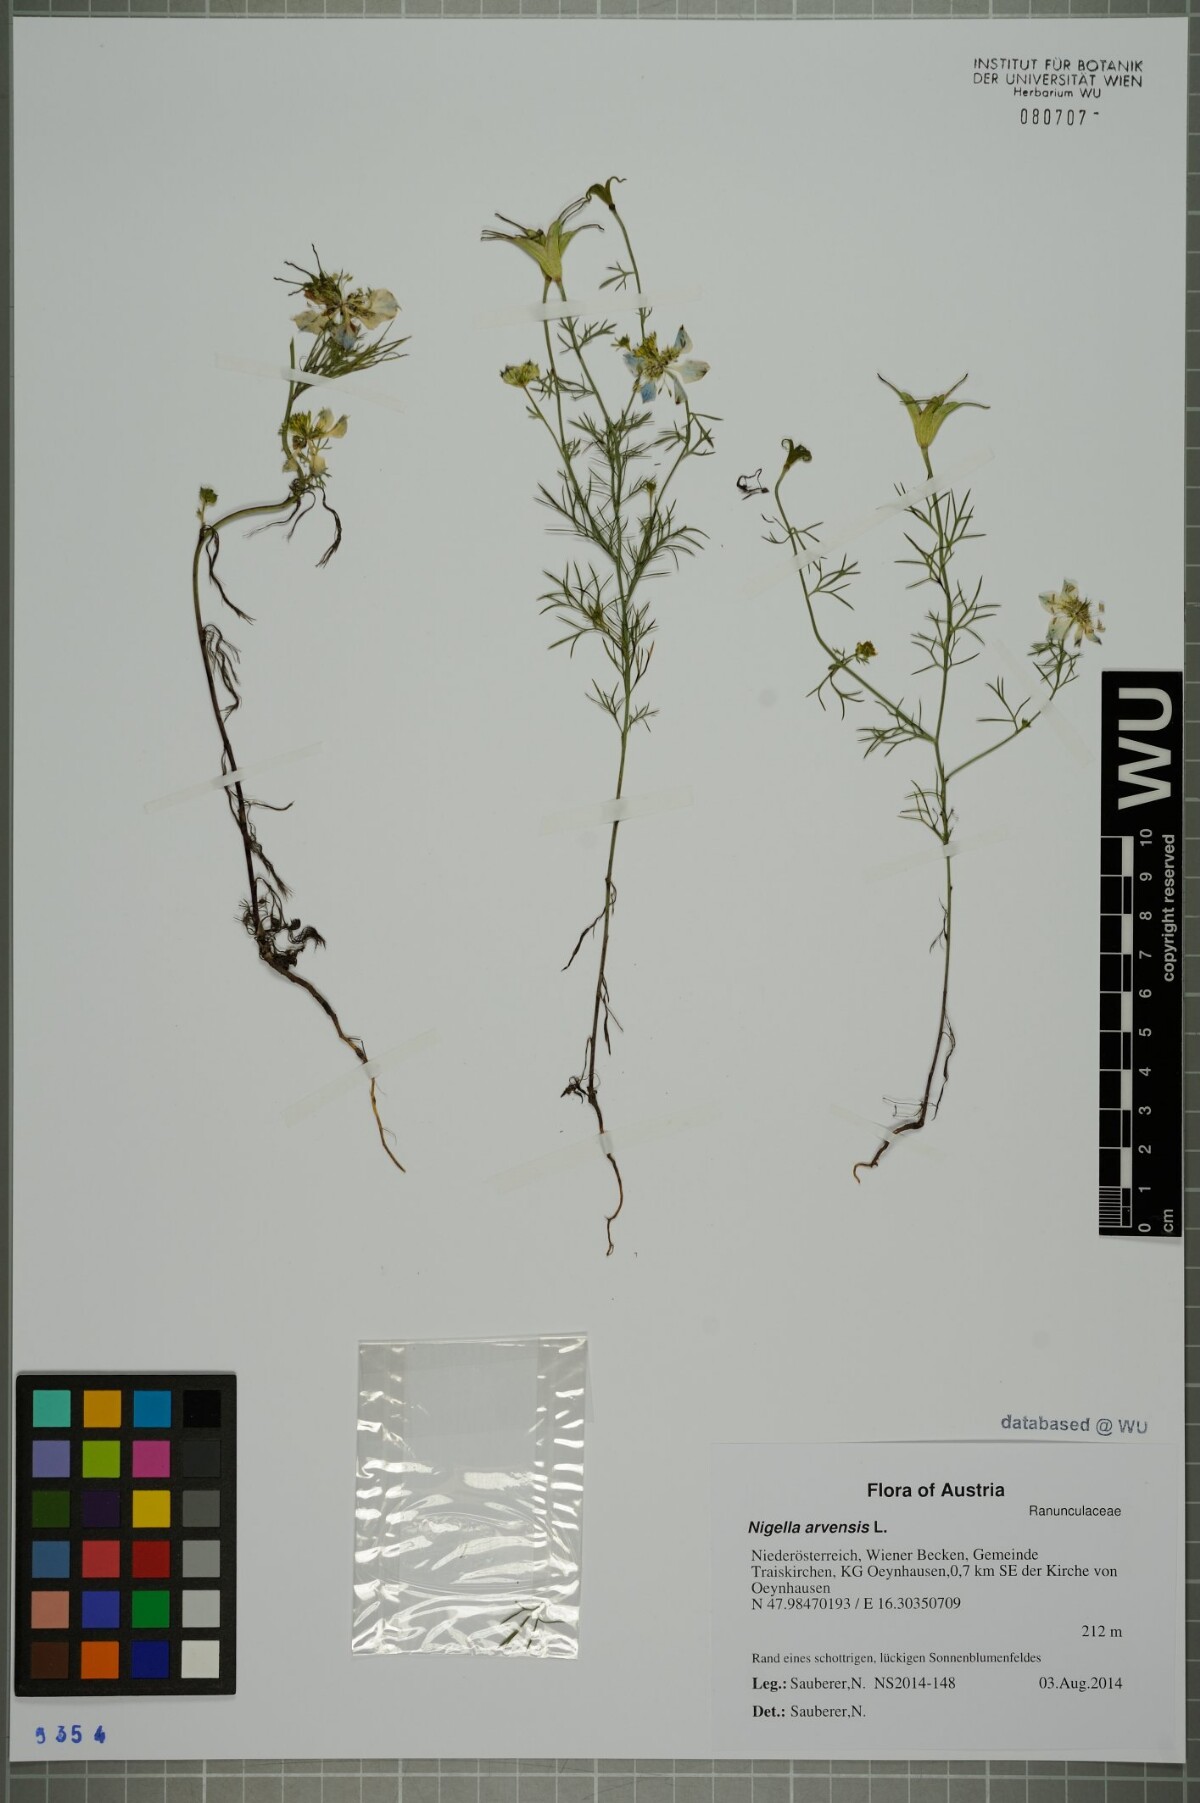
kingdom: Plantae
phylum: Tracheophyta
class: Magnoliopsida
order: Ranunculales
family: Ranunculaceae
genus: Nigella
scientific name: Nigella arvensis
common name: Wild fennel-flower
